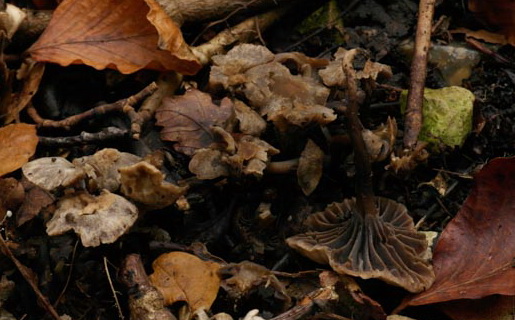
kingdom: Fungi
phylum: Basidiomycota
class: Agaricomycetes
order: Agaricales
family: Clavariaceae
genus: Hodophilus
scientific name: Hodophilus
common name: kratvokshat
